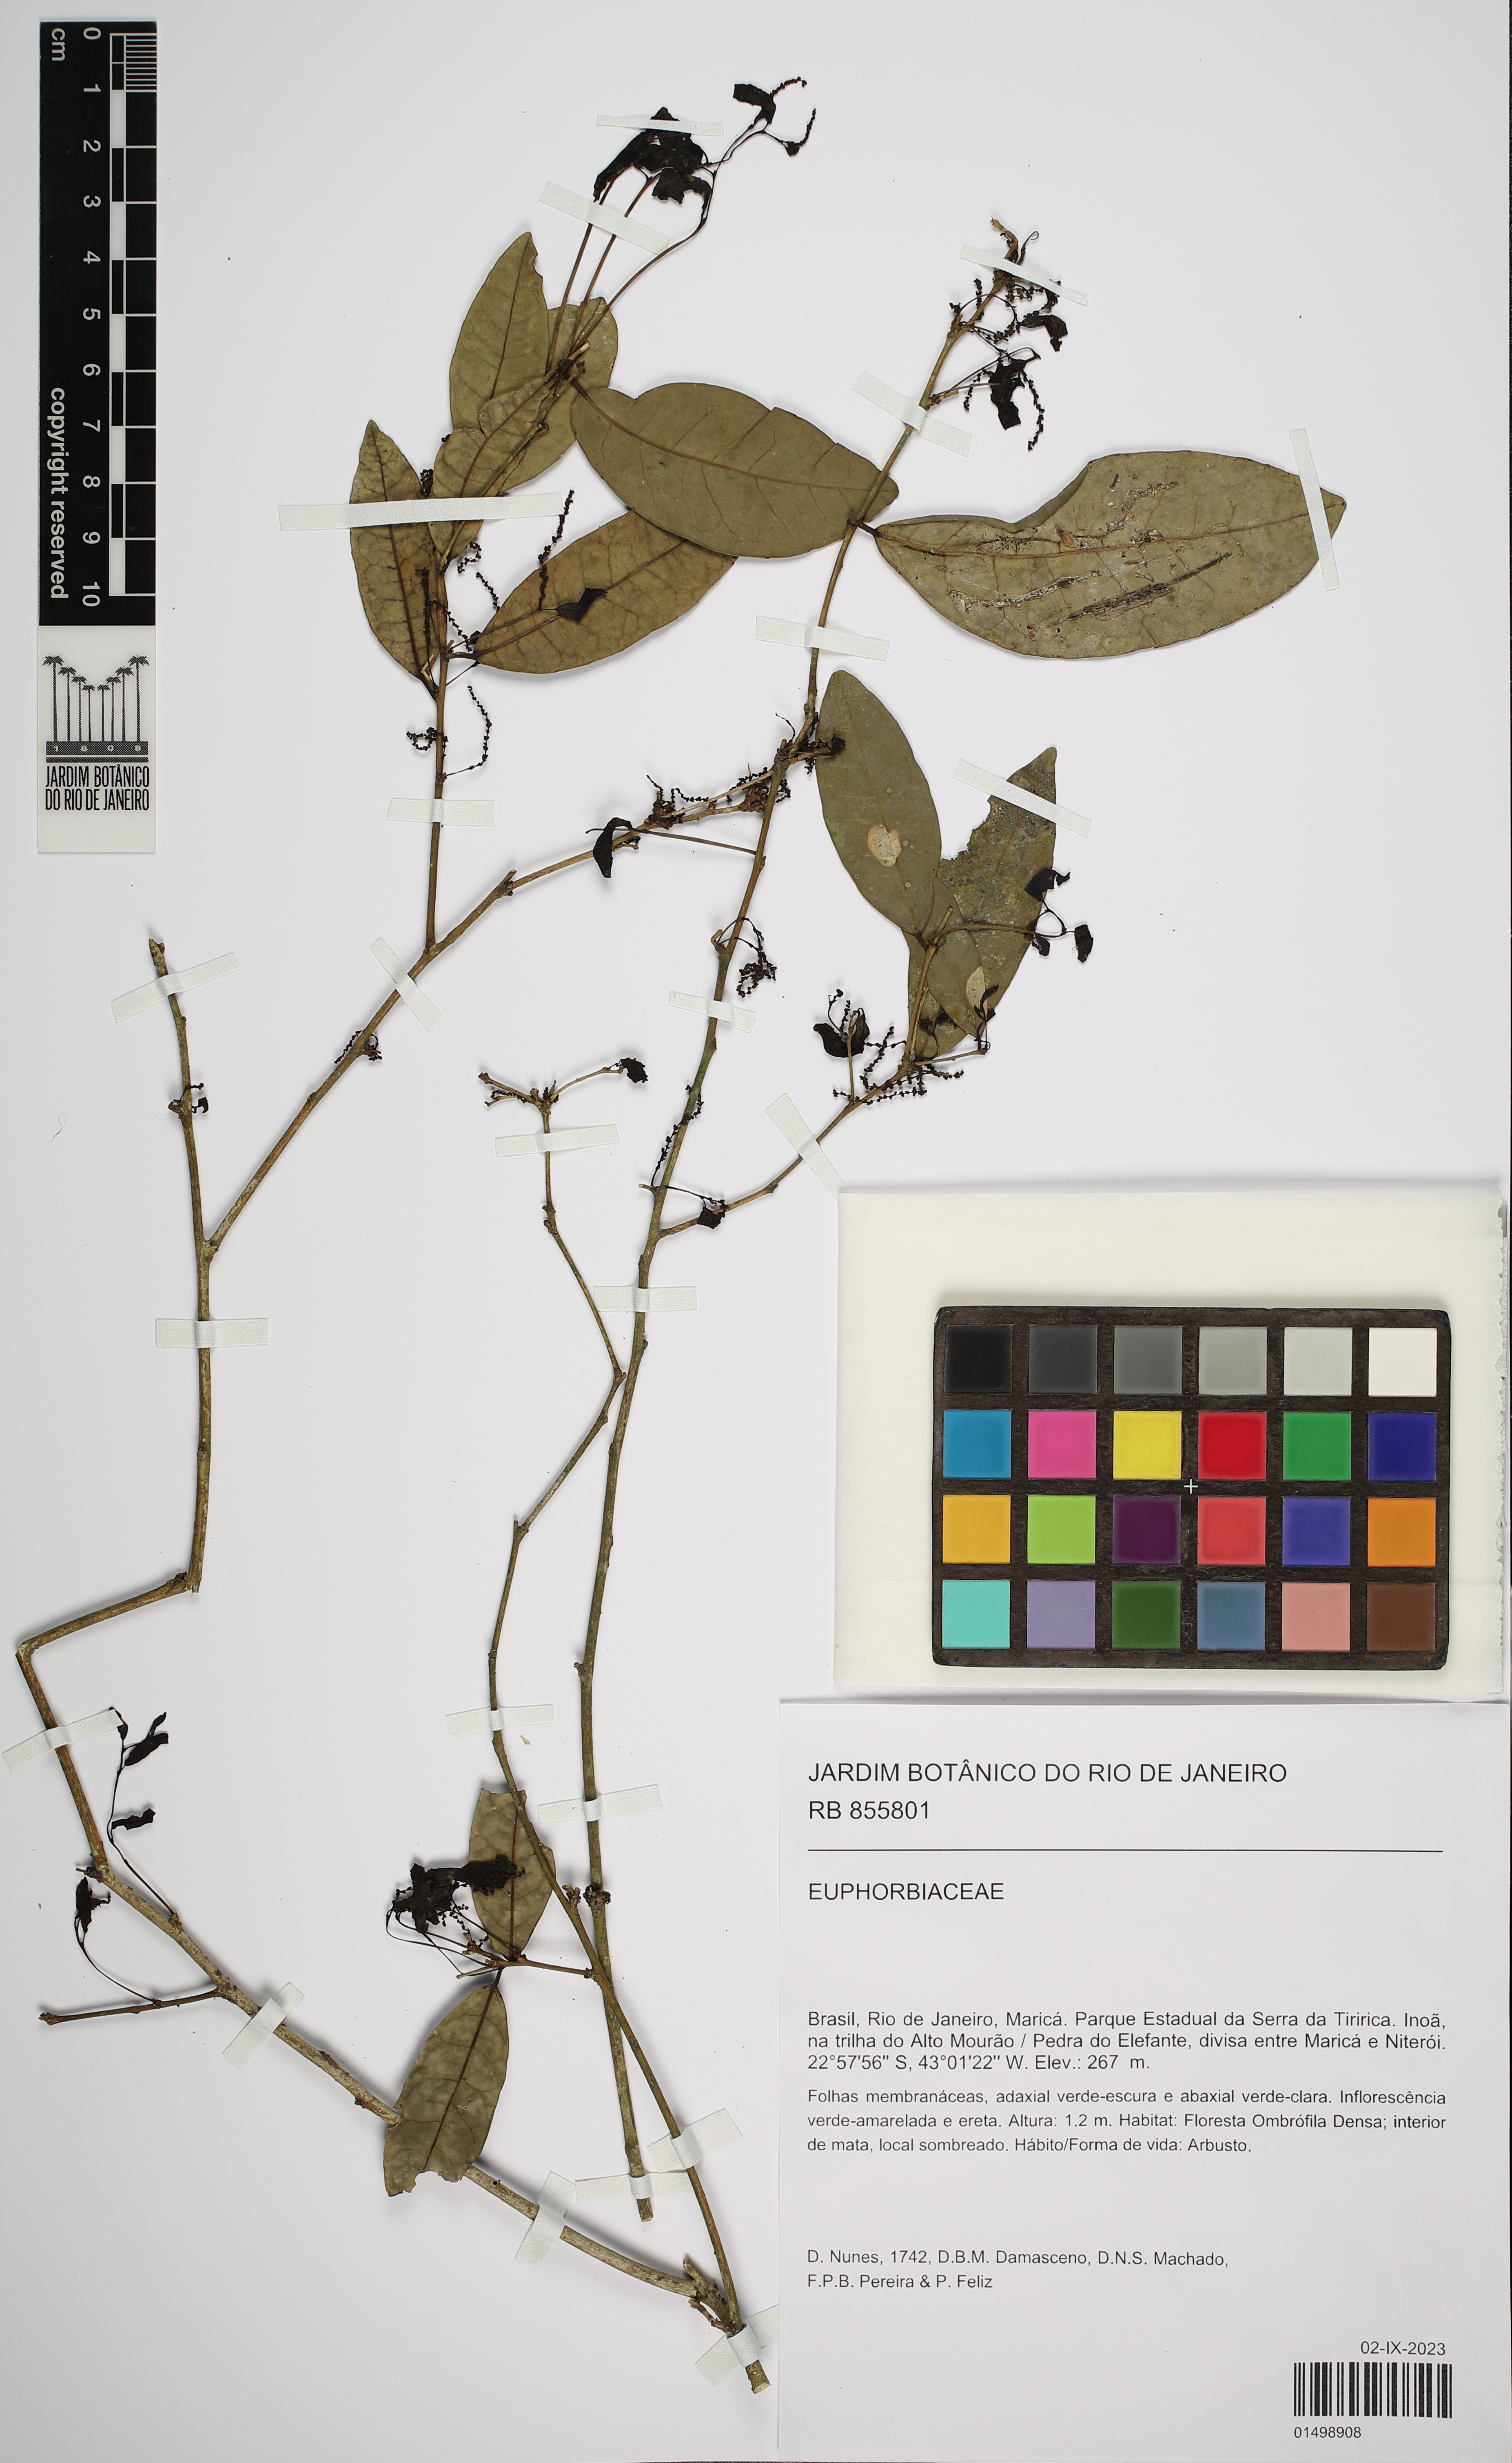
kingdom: Plantae
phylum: Tracheophyta
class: Magnoliopsida
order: Malpighiales
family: Euphorbiaceae
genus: Gymnanthes
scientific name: Gymnanthes glabrata
